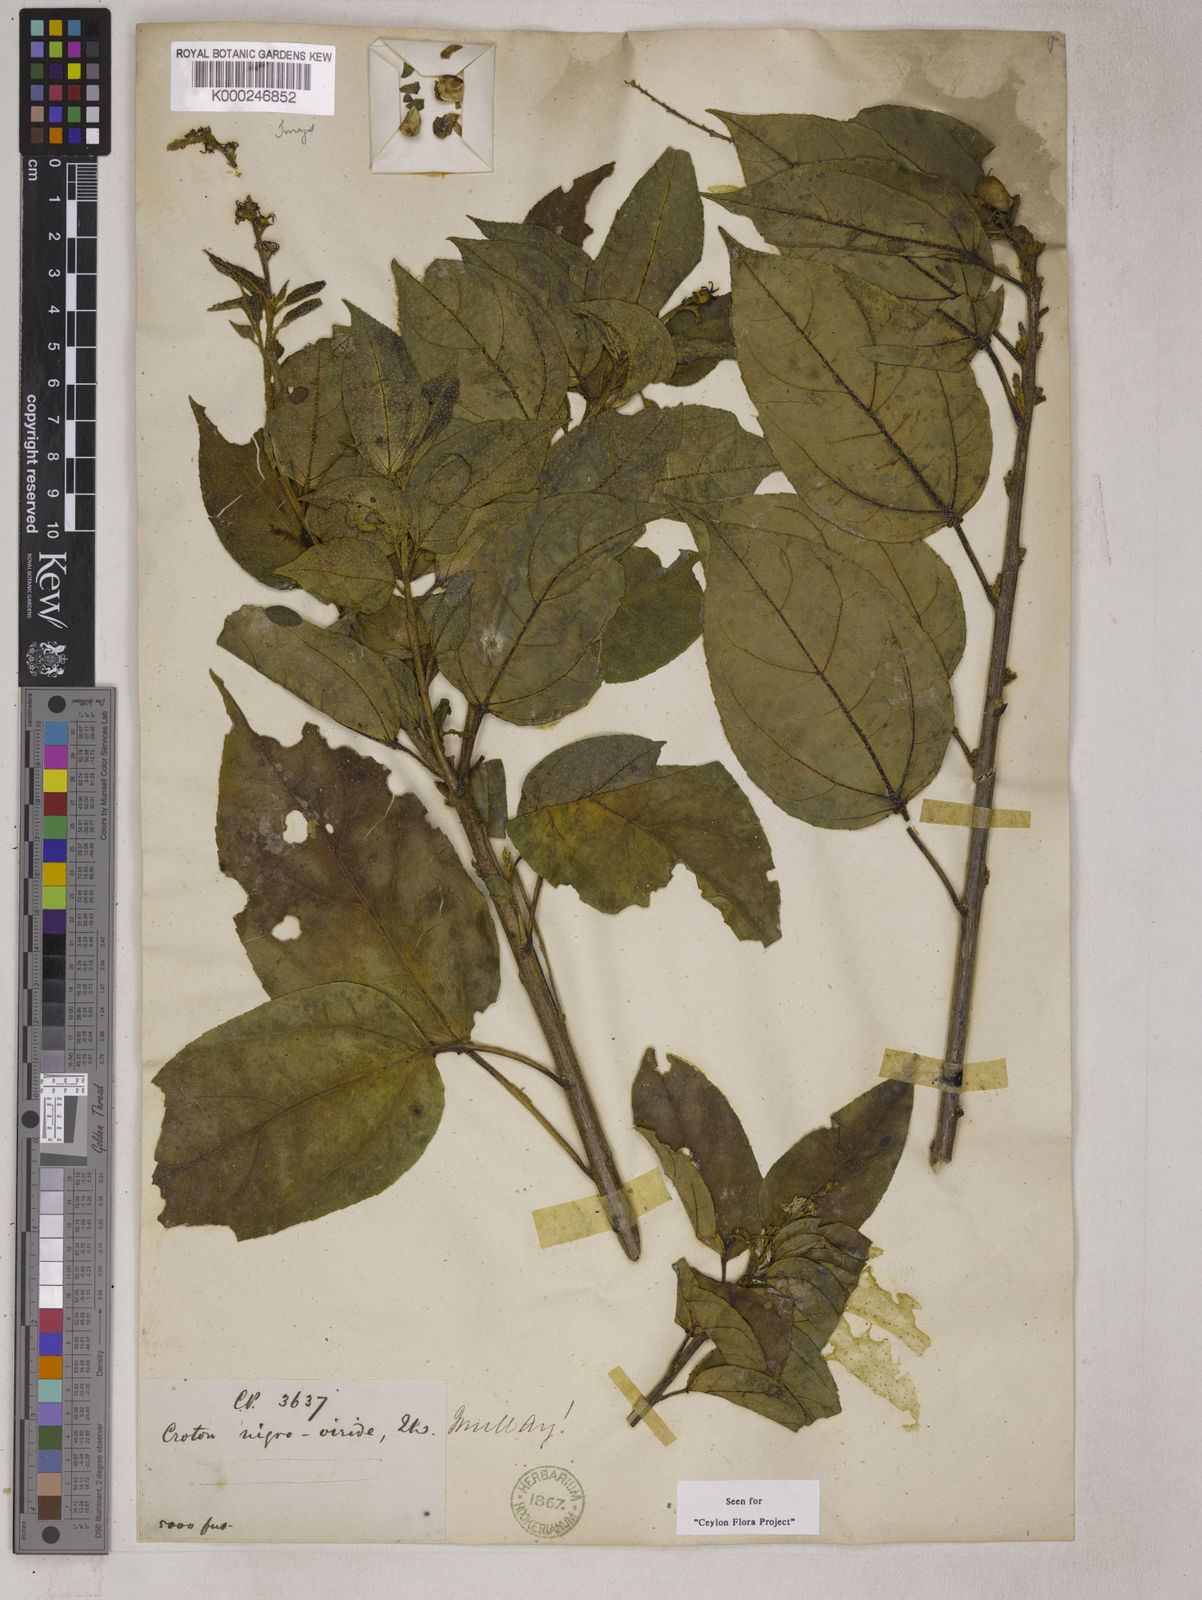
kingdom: Plantae
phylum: Tracheophyta
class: Magnoliopsida
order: Malpighiales
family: Euphorbiaceae
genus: Croton
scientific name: Croton nigroviridis
